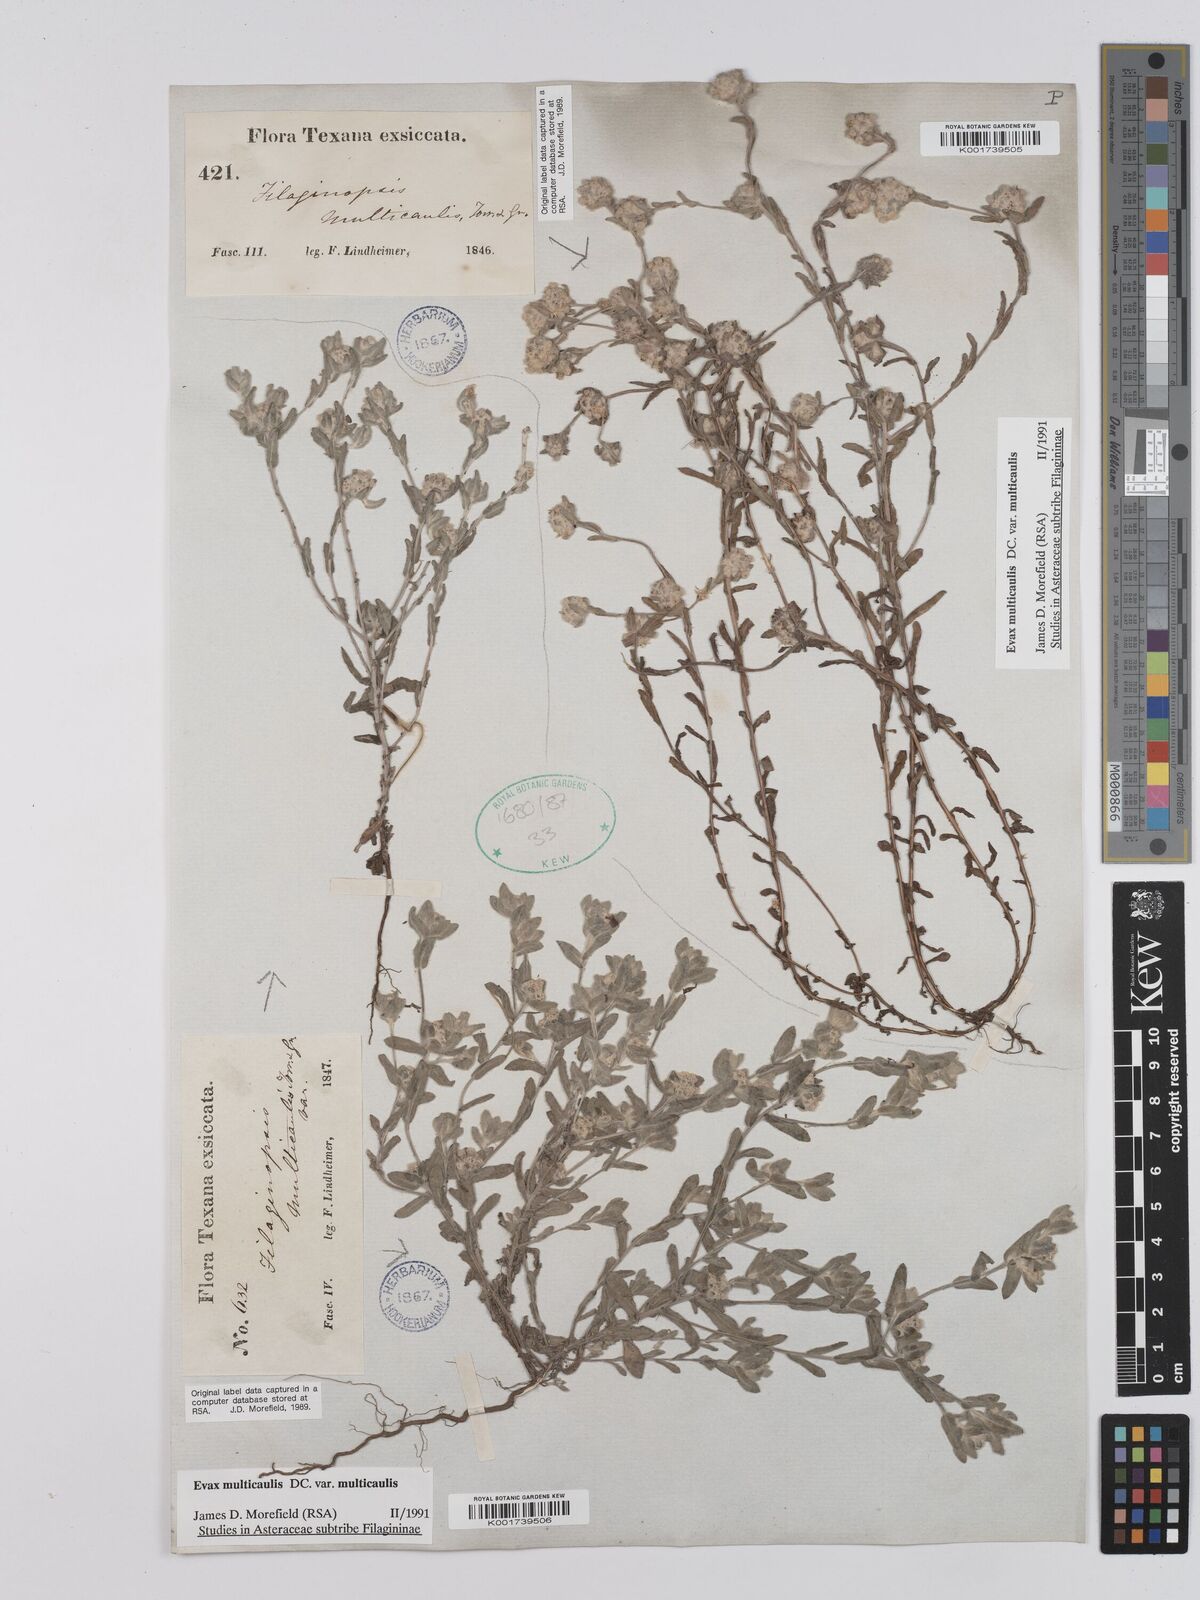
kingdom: Plantae
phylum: Tracheophyta
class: Magnoliopsida
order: Asterales
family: Asteraceae
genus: Filago
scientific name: Filago
